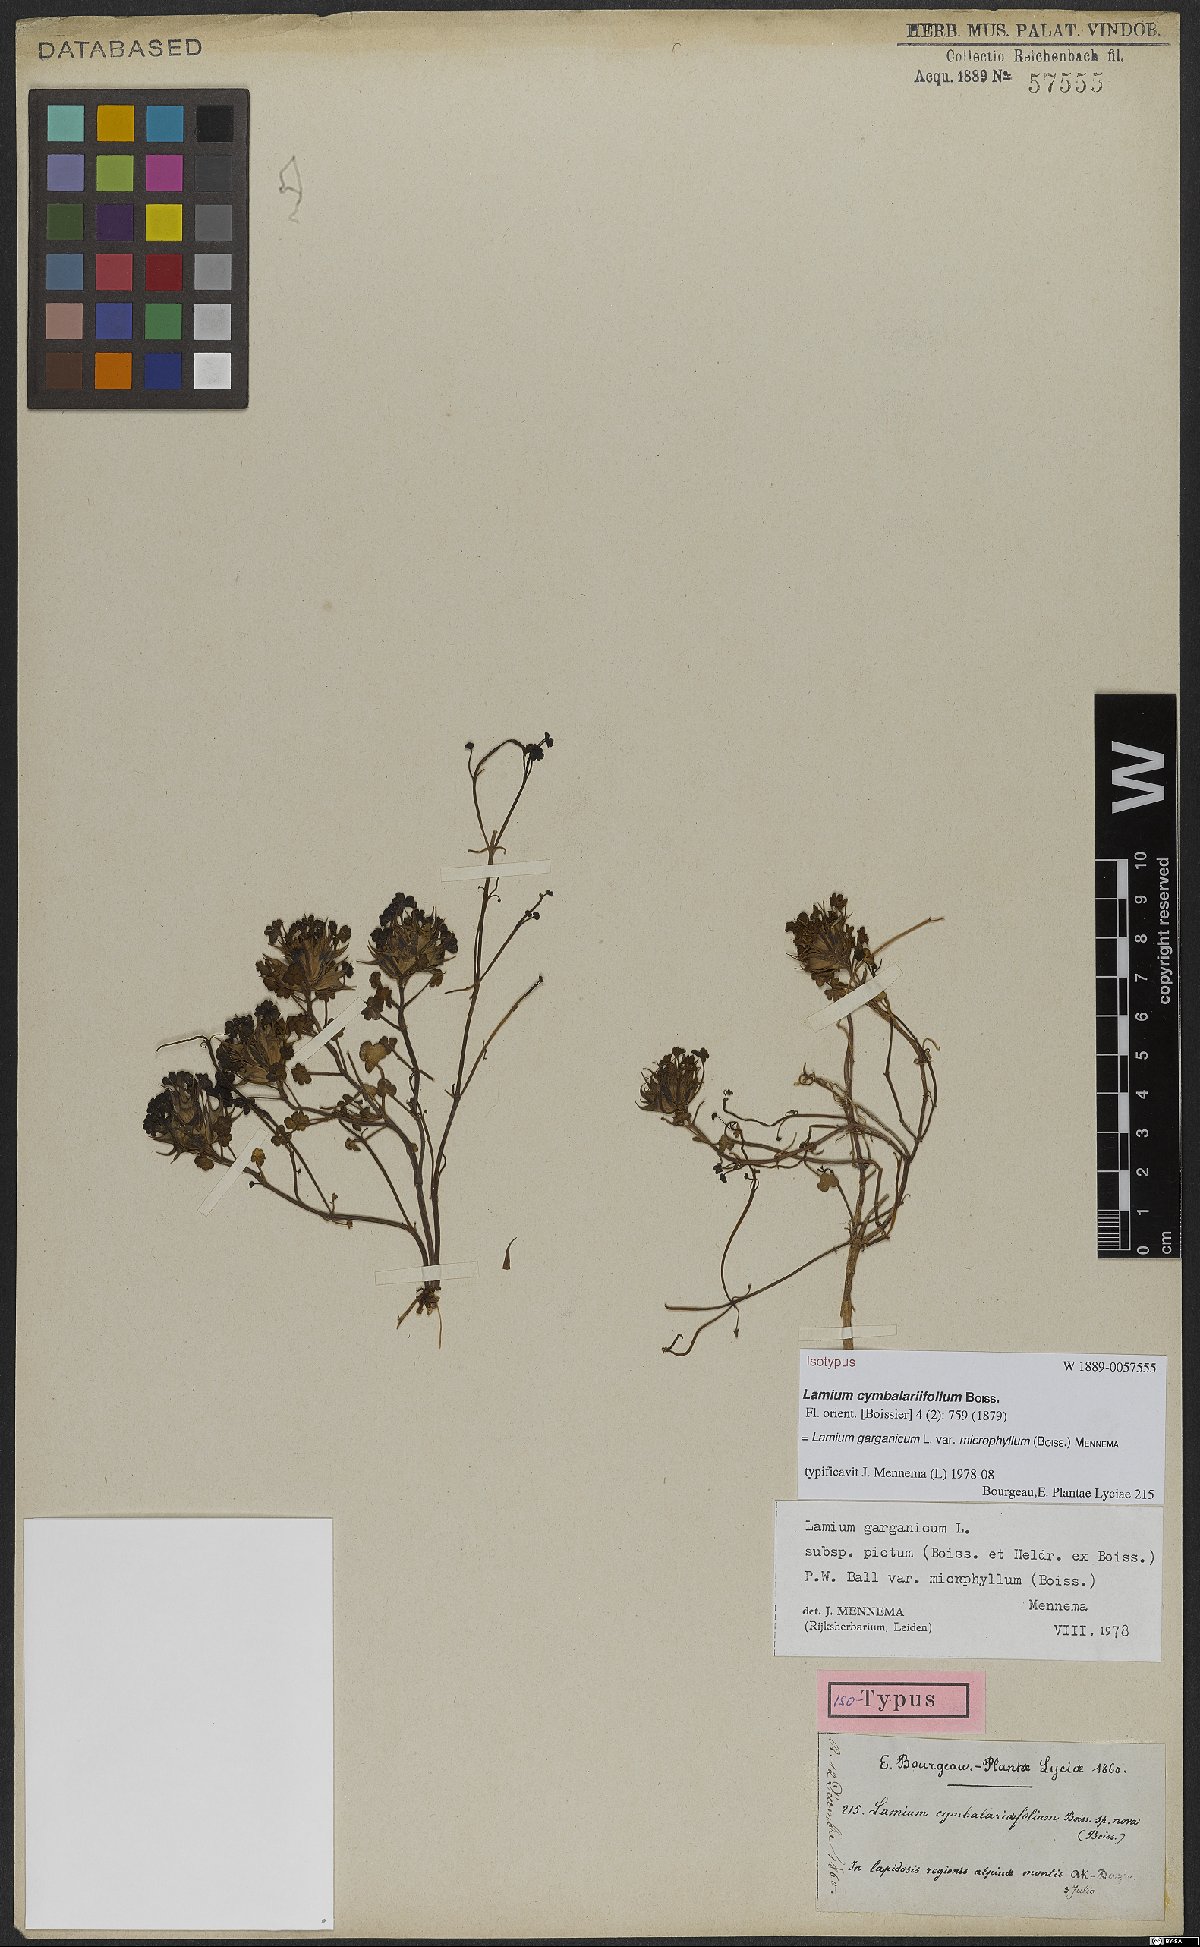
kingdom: Plantae
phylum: Tracheophyta
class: Magnoliopsida
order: Lamiales
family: Lamiaceae
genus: Lamium
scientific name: Lamium garganicum
